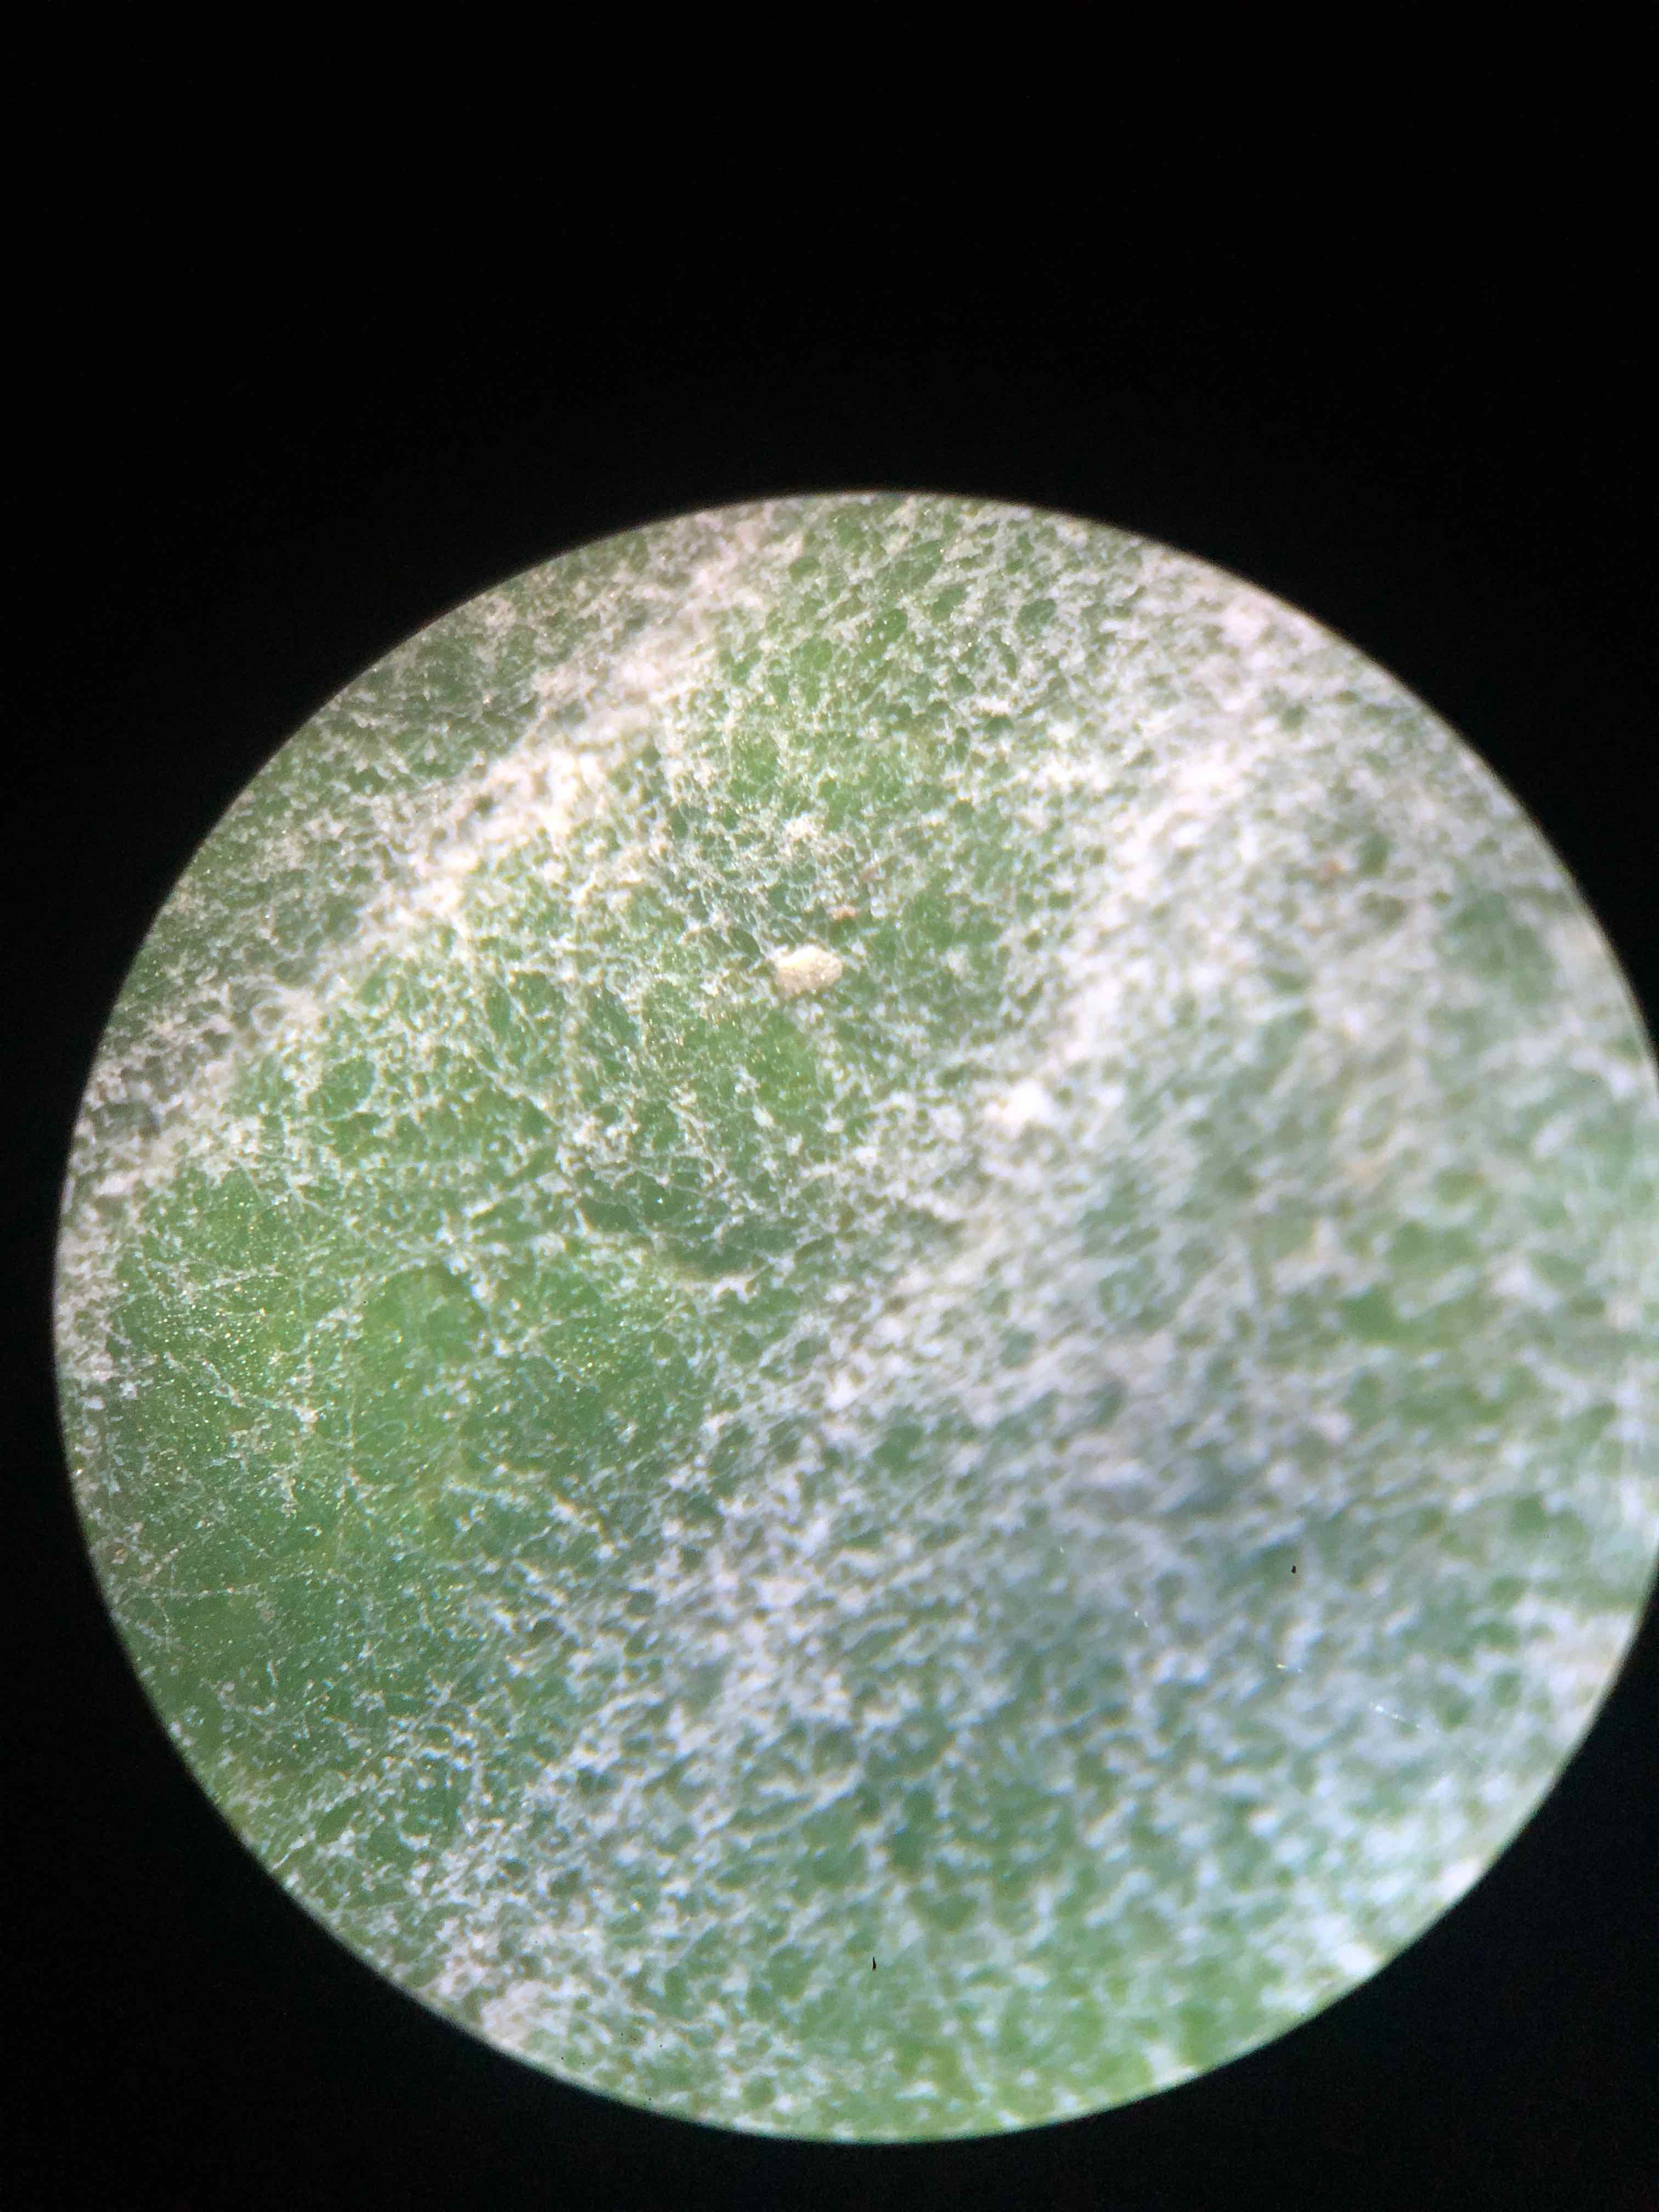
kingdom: Fungi
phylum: Ascomycota
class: Leotiomycetes
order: Helotiales
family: Erysiphaceae
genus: Erysiphe
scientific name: Erysiphe hyperici
